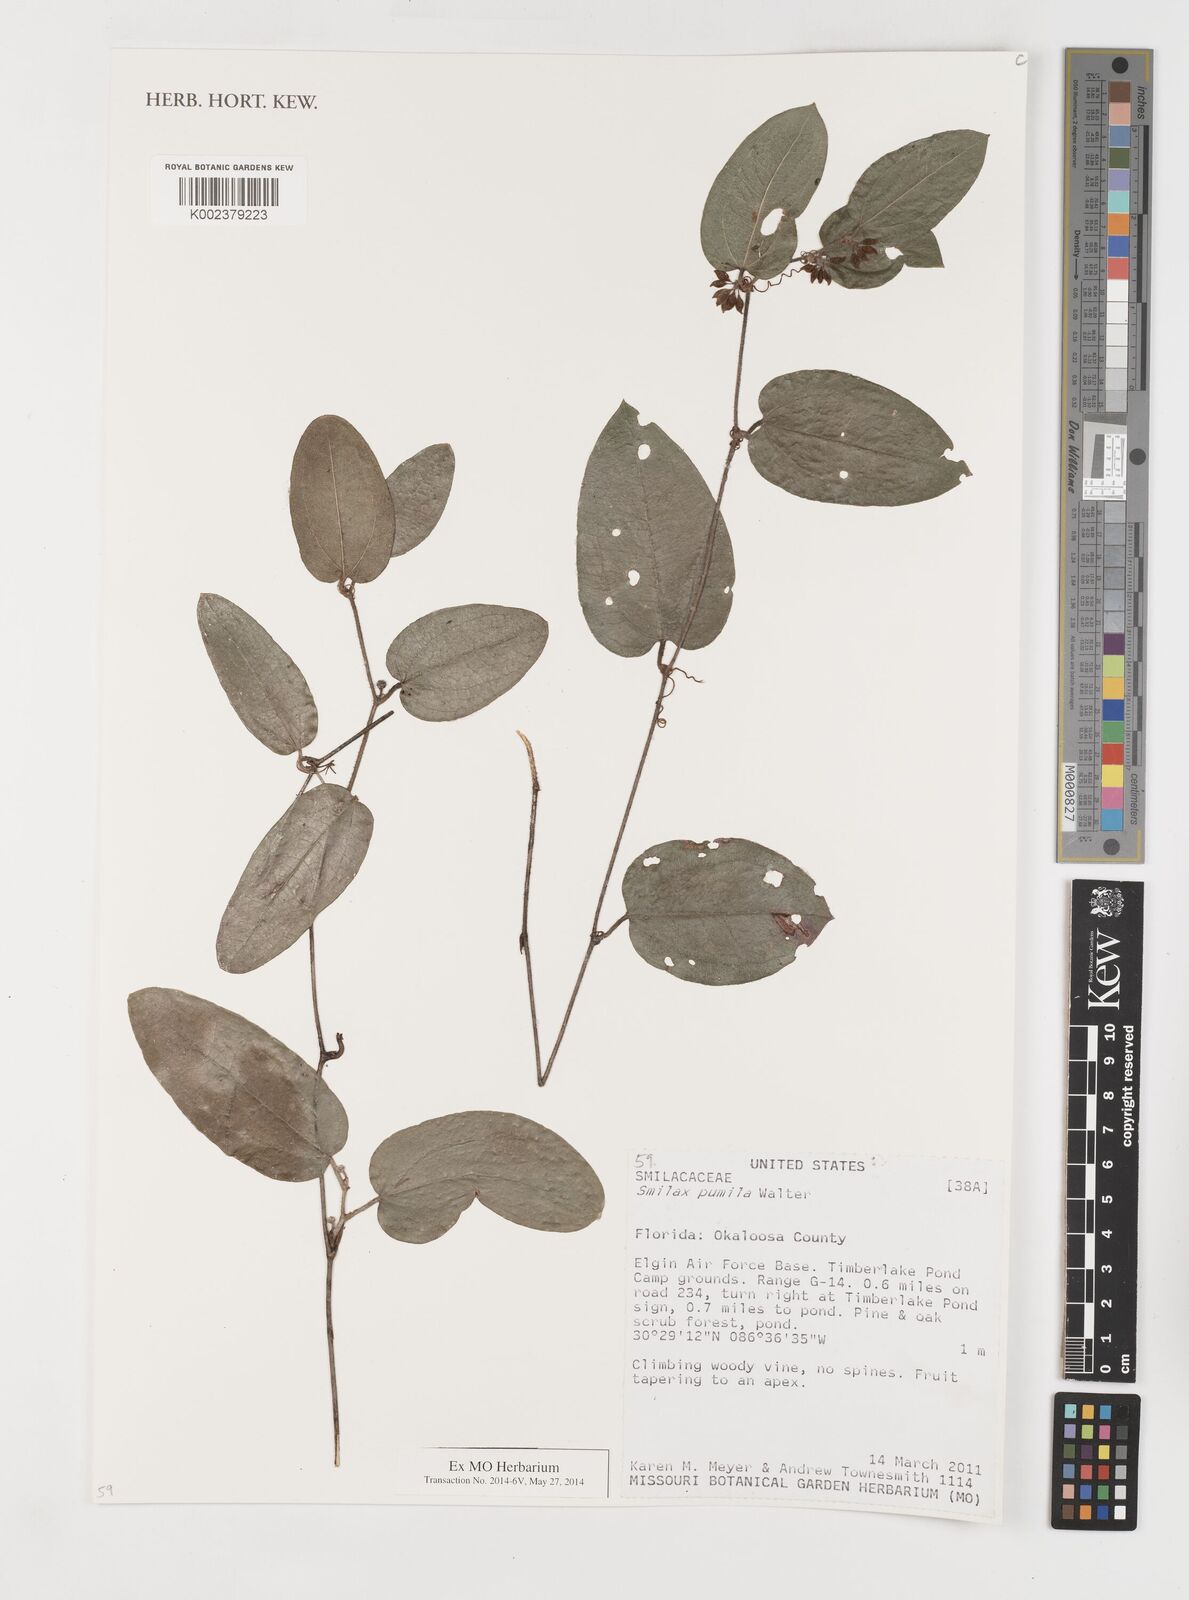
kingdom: Plantae
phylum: Tracheophyta
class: Liliopsida
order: Liliales
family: Smilacaceae
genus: Smilax
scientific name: Smilax pumila
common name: Sarsaparilla-vine
